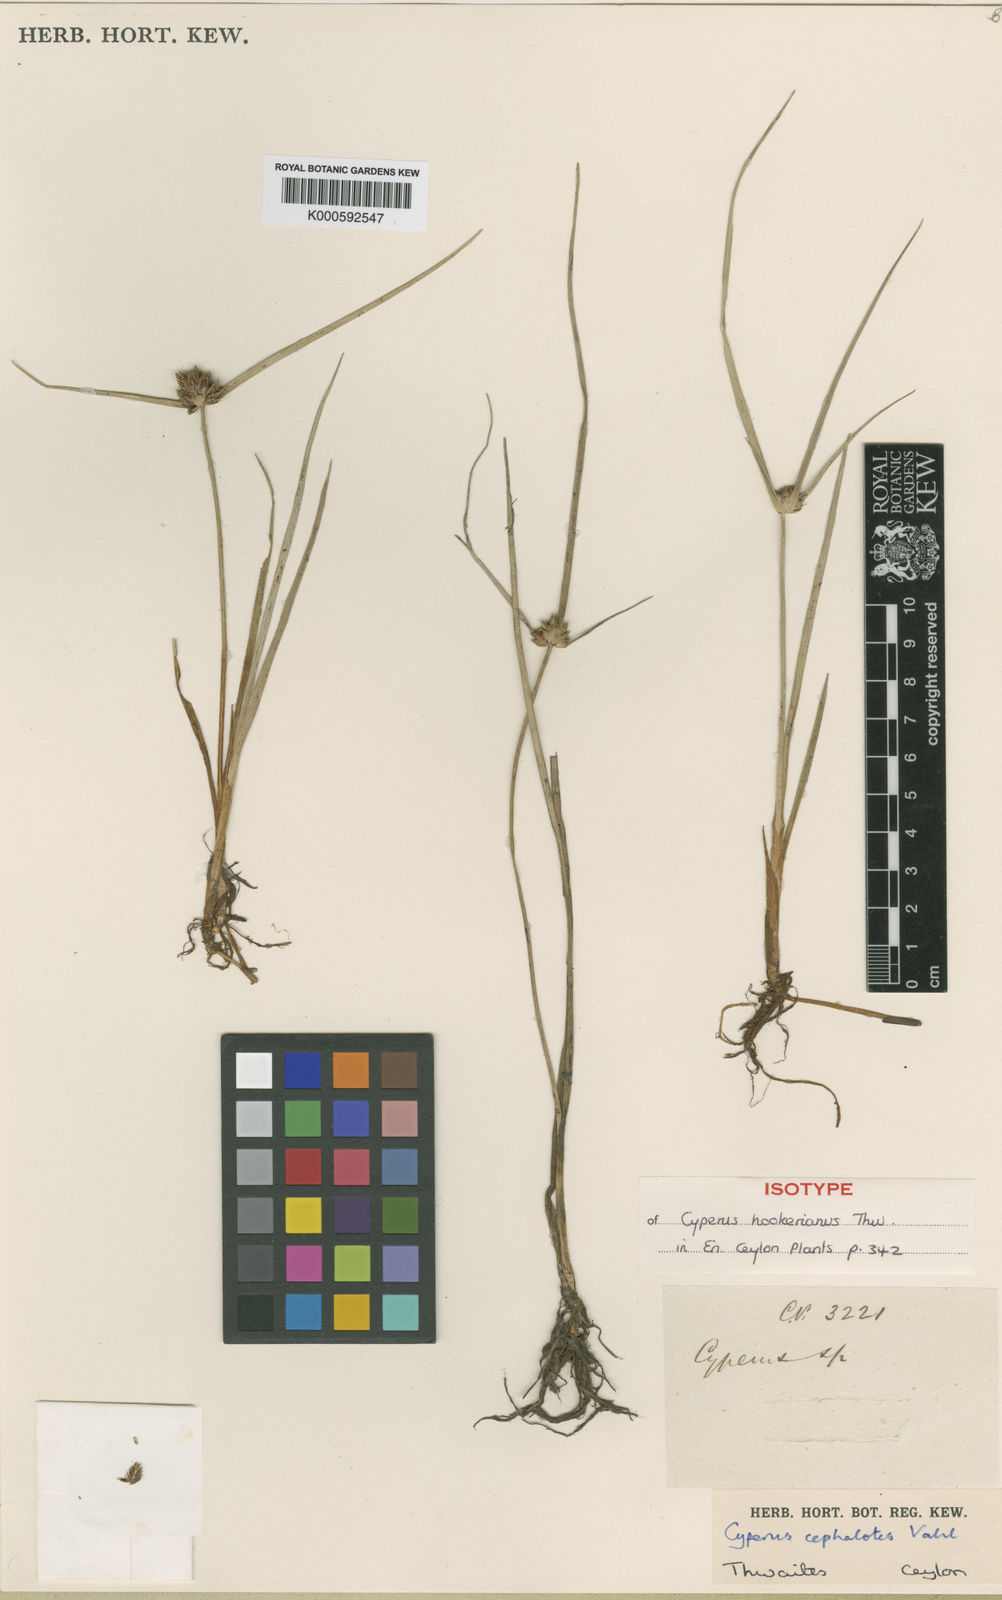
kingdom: Plantae
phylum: Tracheophyta
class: Liliopsida
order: Poales
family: Cyperaceae
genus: Cyperus
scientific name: Cyperus cephalotes
